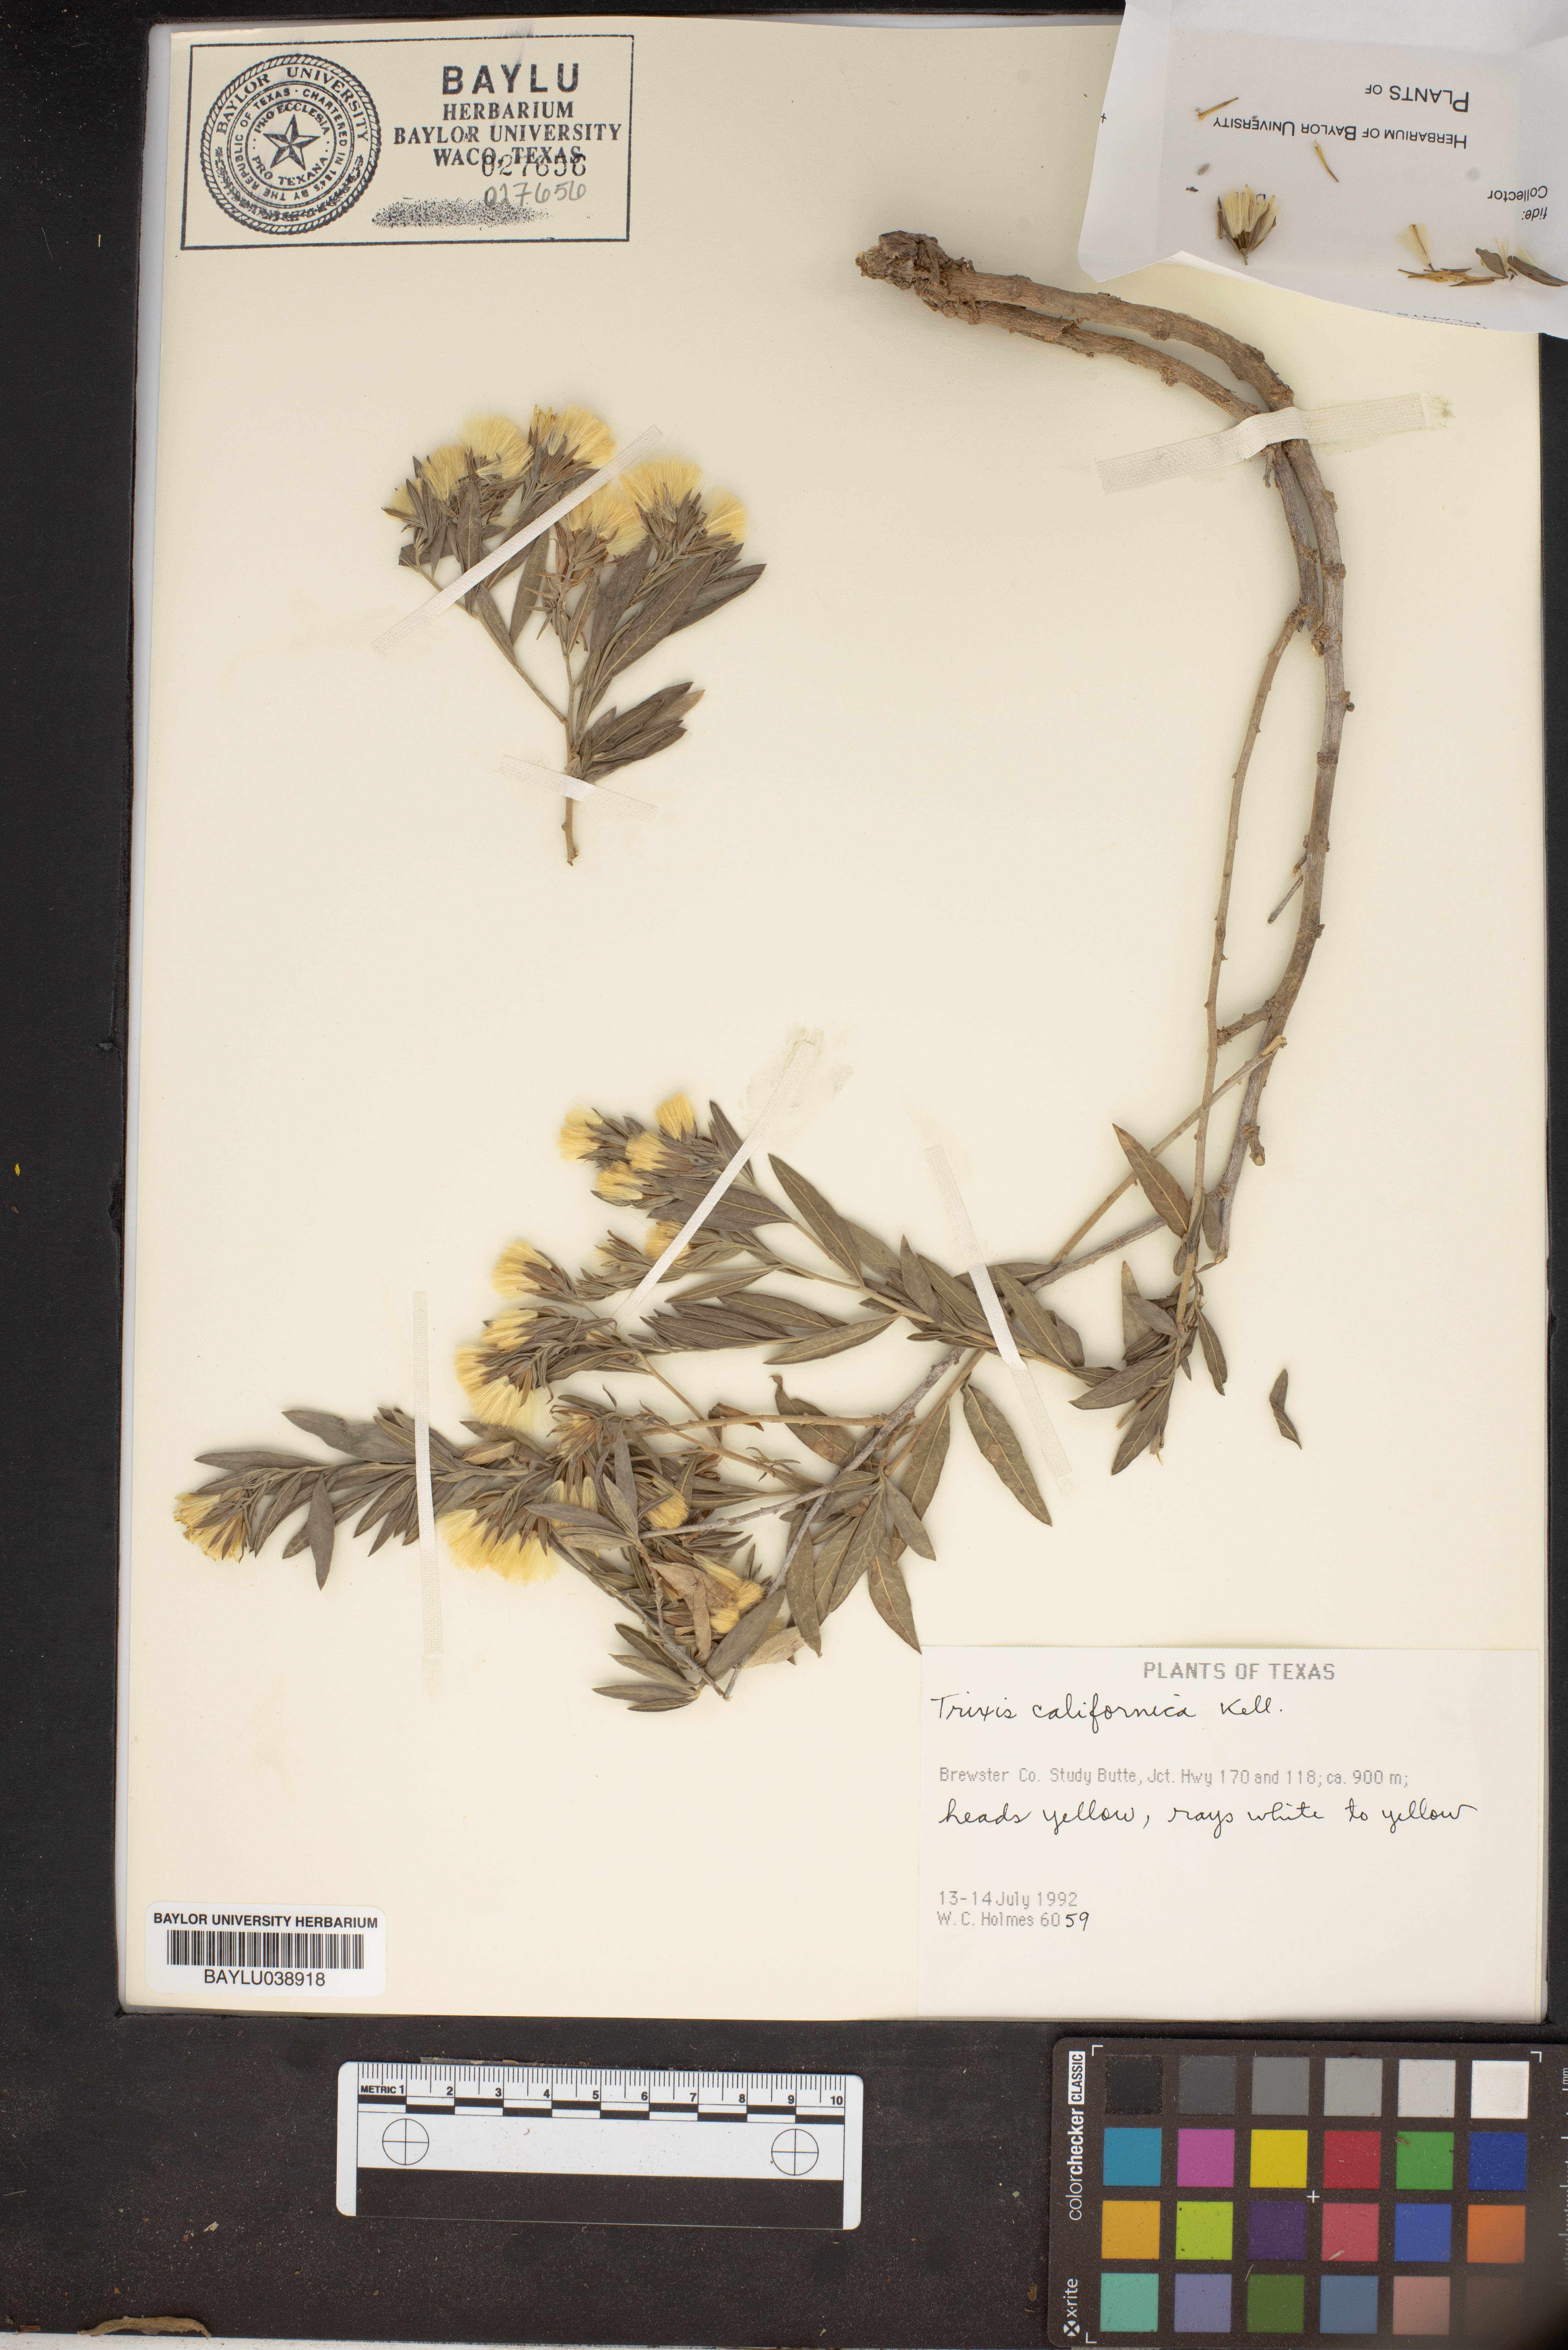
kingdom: Plantae
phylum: Tracheophyta
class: Magnoliopsida
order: Asterales
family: Asteraceae
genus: Trixis
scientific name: Trixis californica
